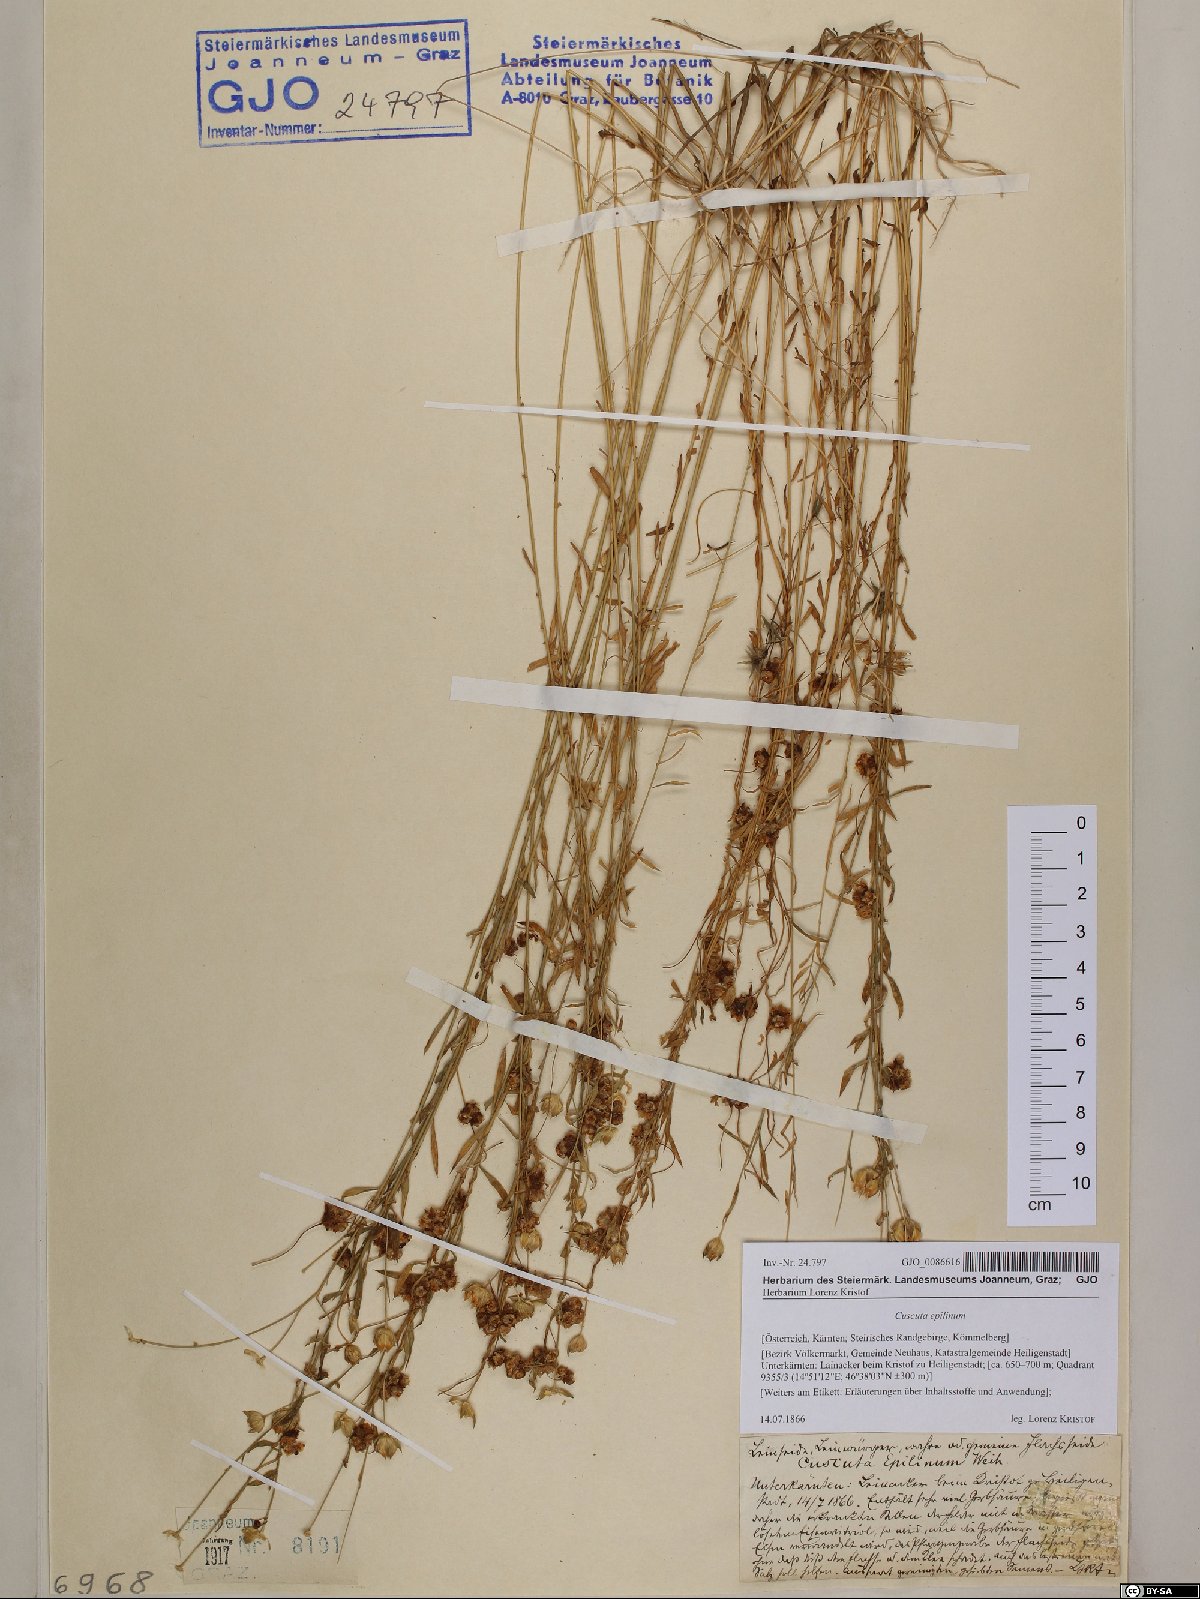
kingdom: Plantae
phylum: Tracheophyta
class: Magnoliopsida
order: Solanales
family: Convolvulaceae
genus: Cuscuta
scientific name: Cuscuta epilinum
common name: Flax dodder
